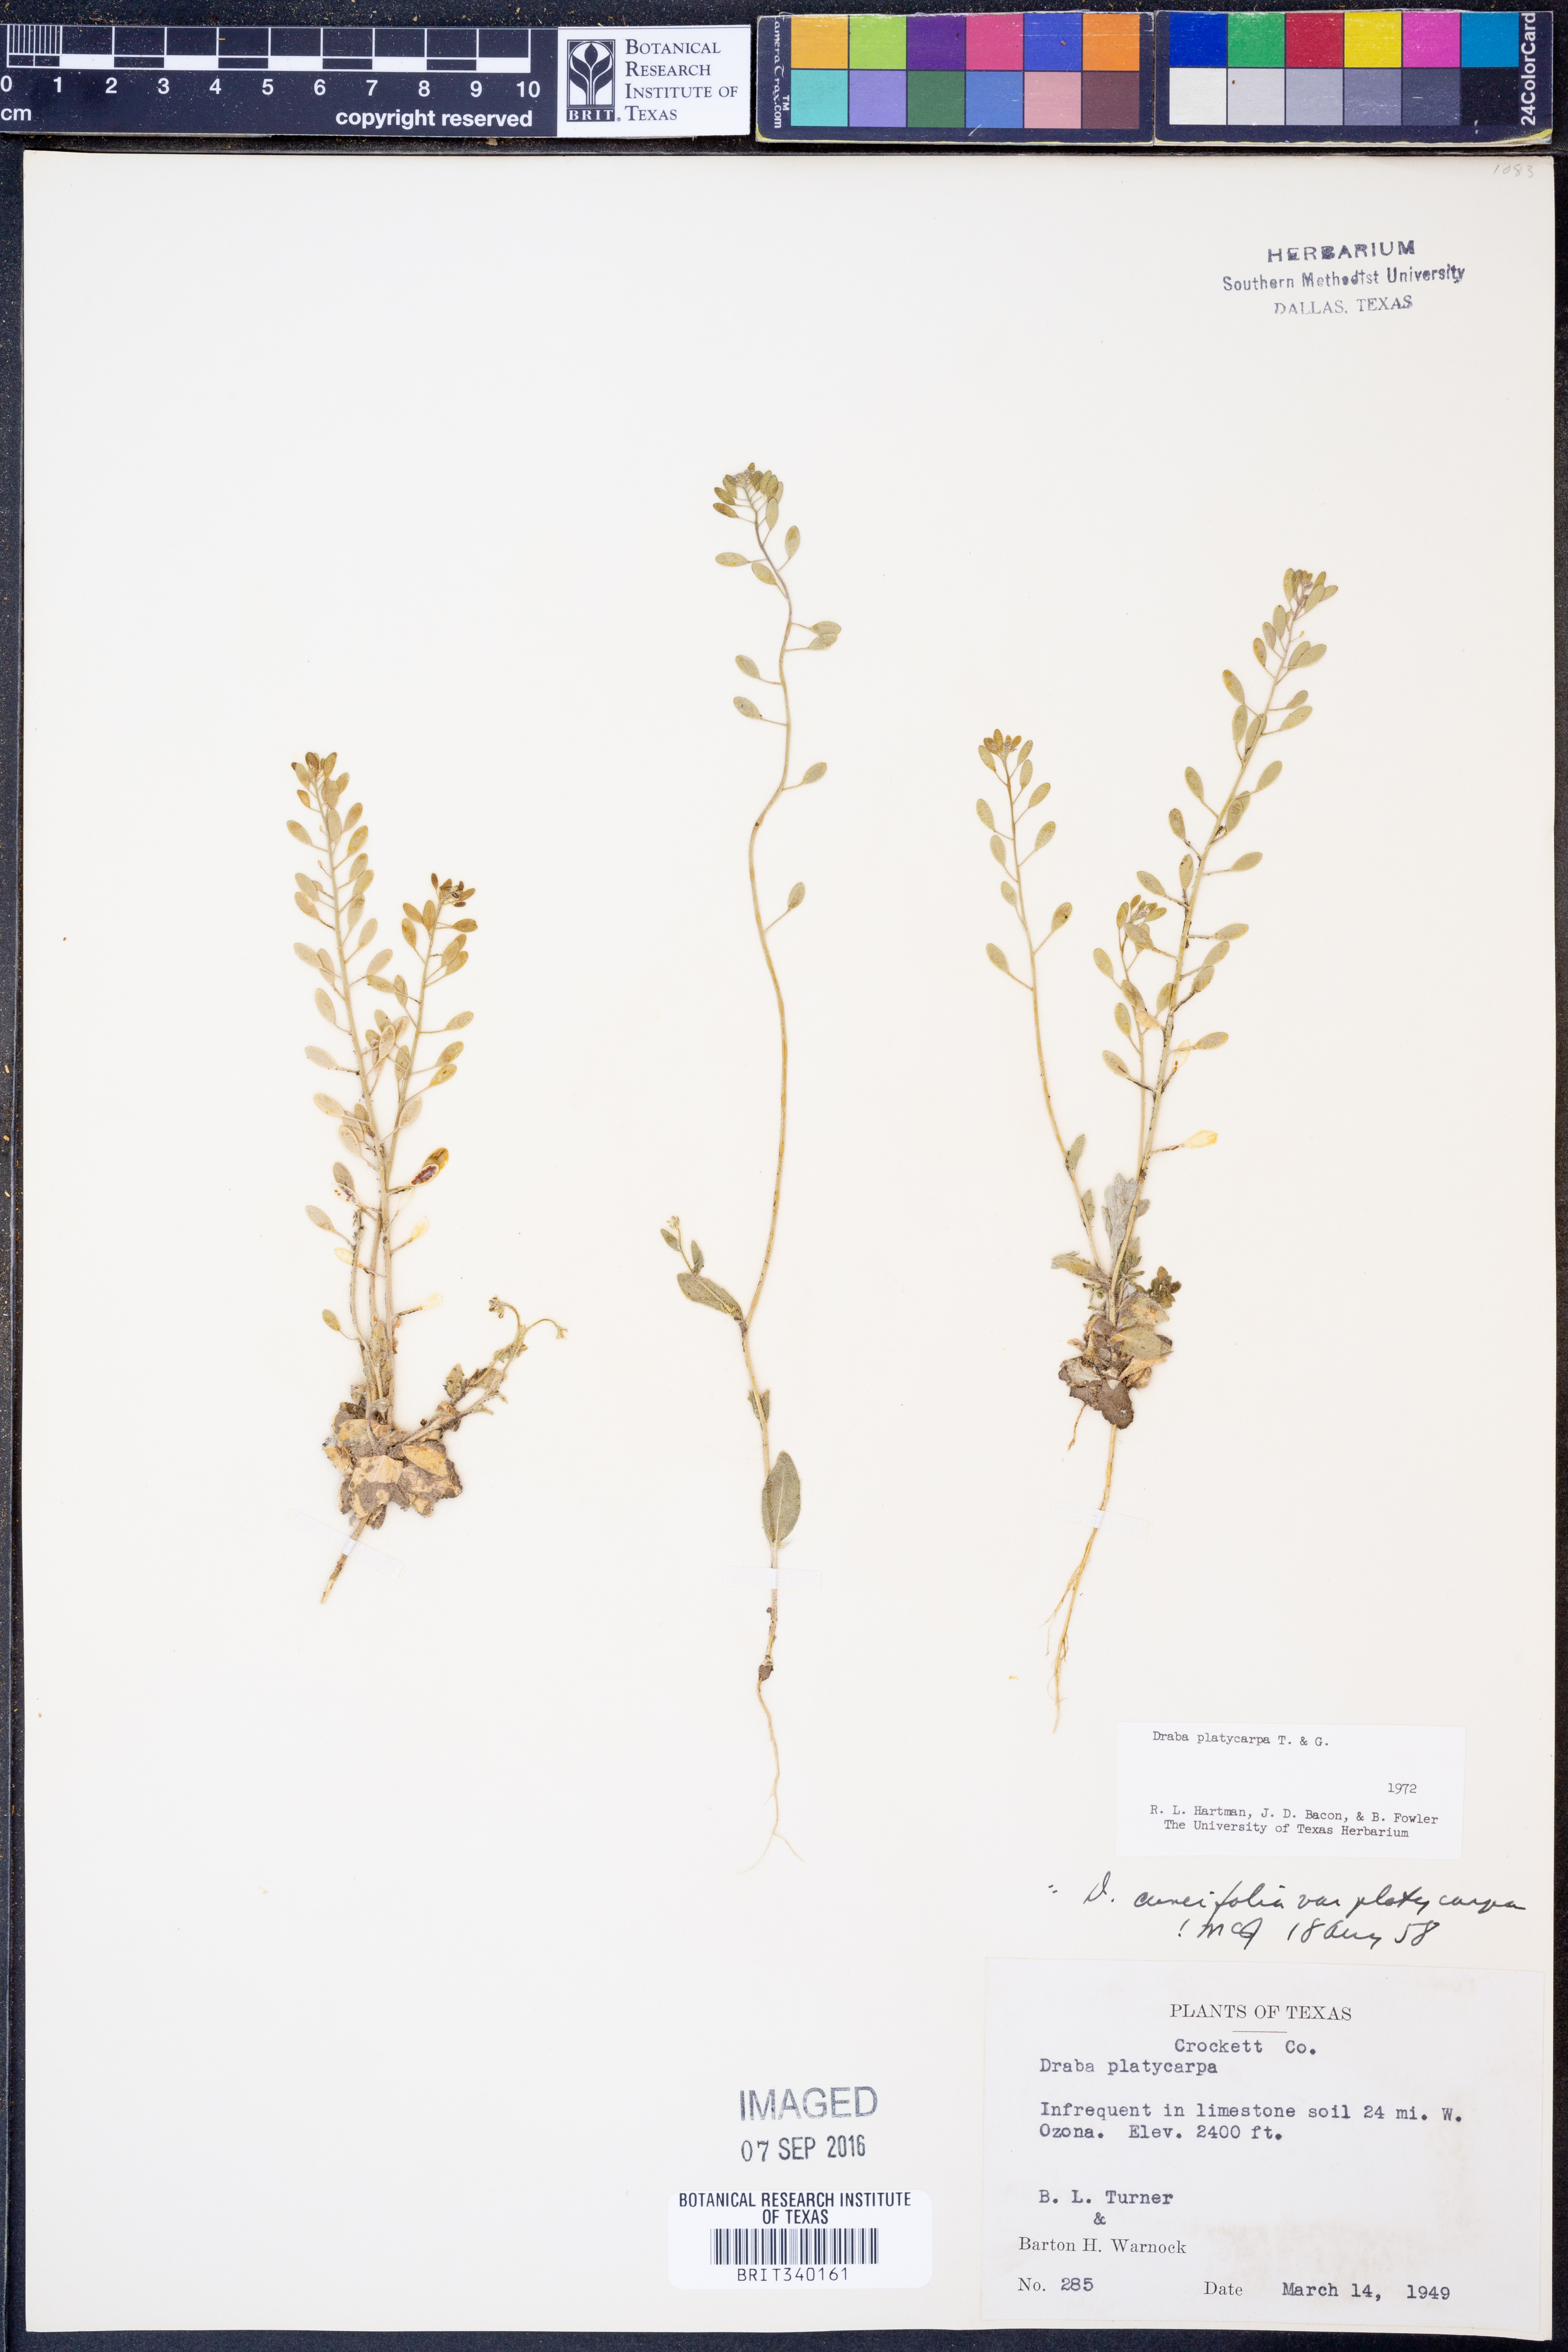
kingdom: Plantae
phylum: Tracheophyta
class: Magnoliopsida
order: Brassicales
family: Brassicaceae
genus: Tomostima
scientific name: Tomostima platycarpa
